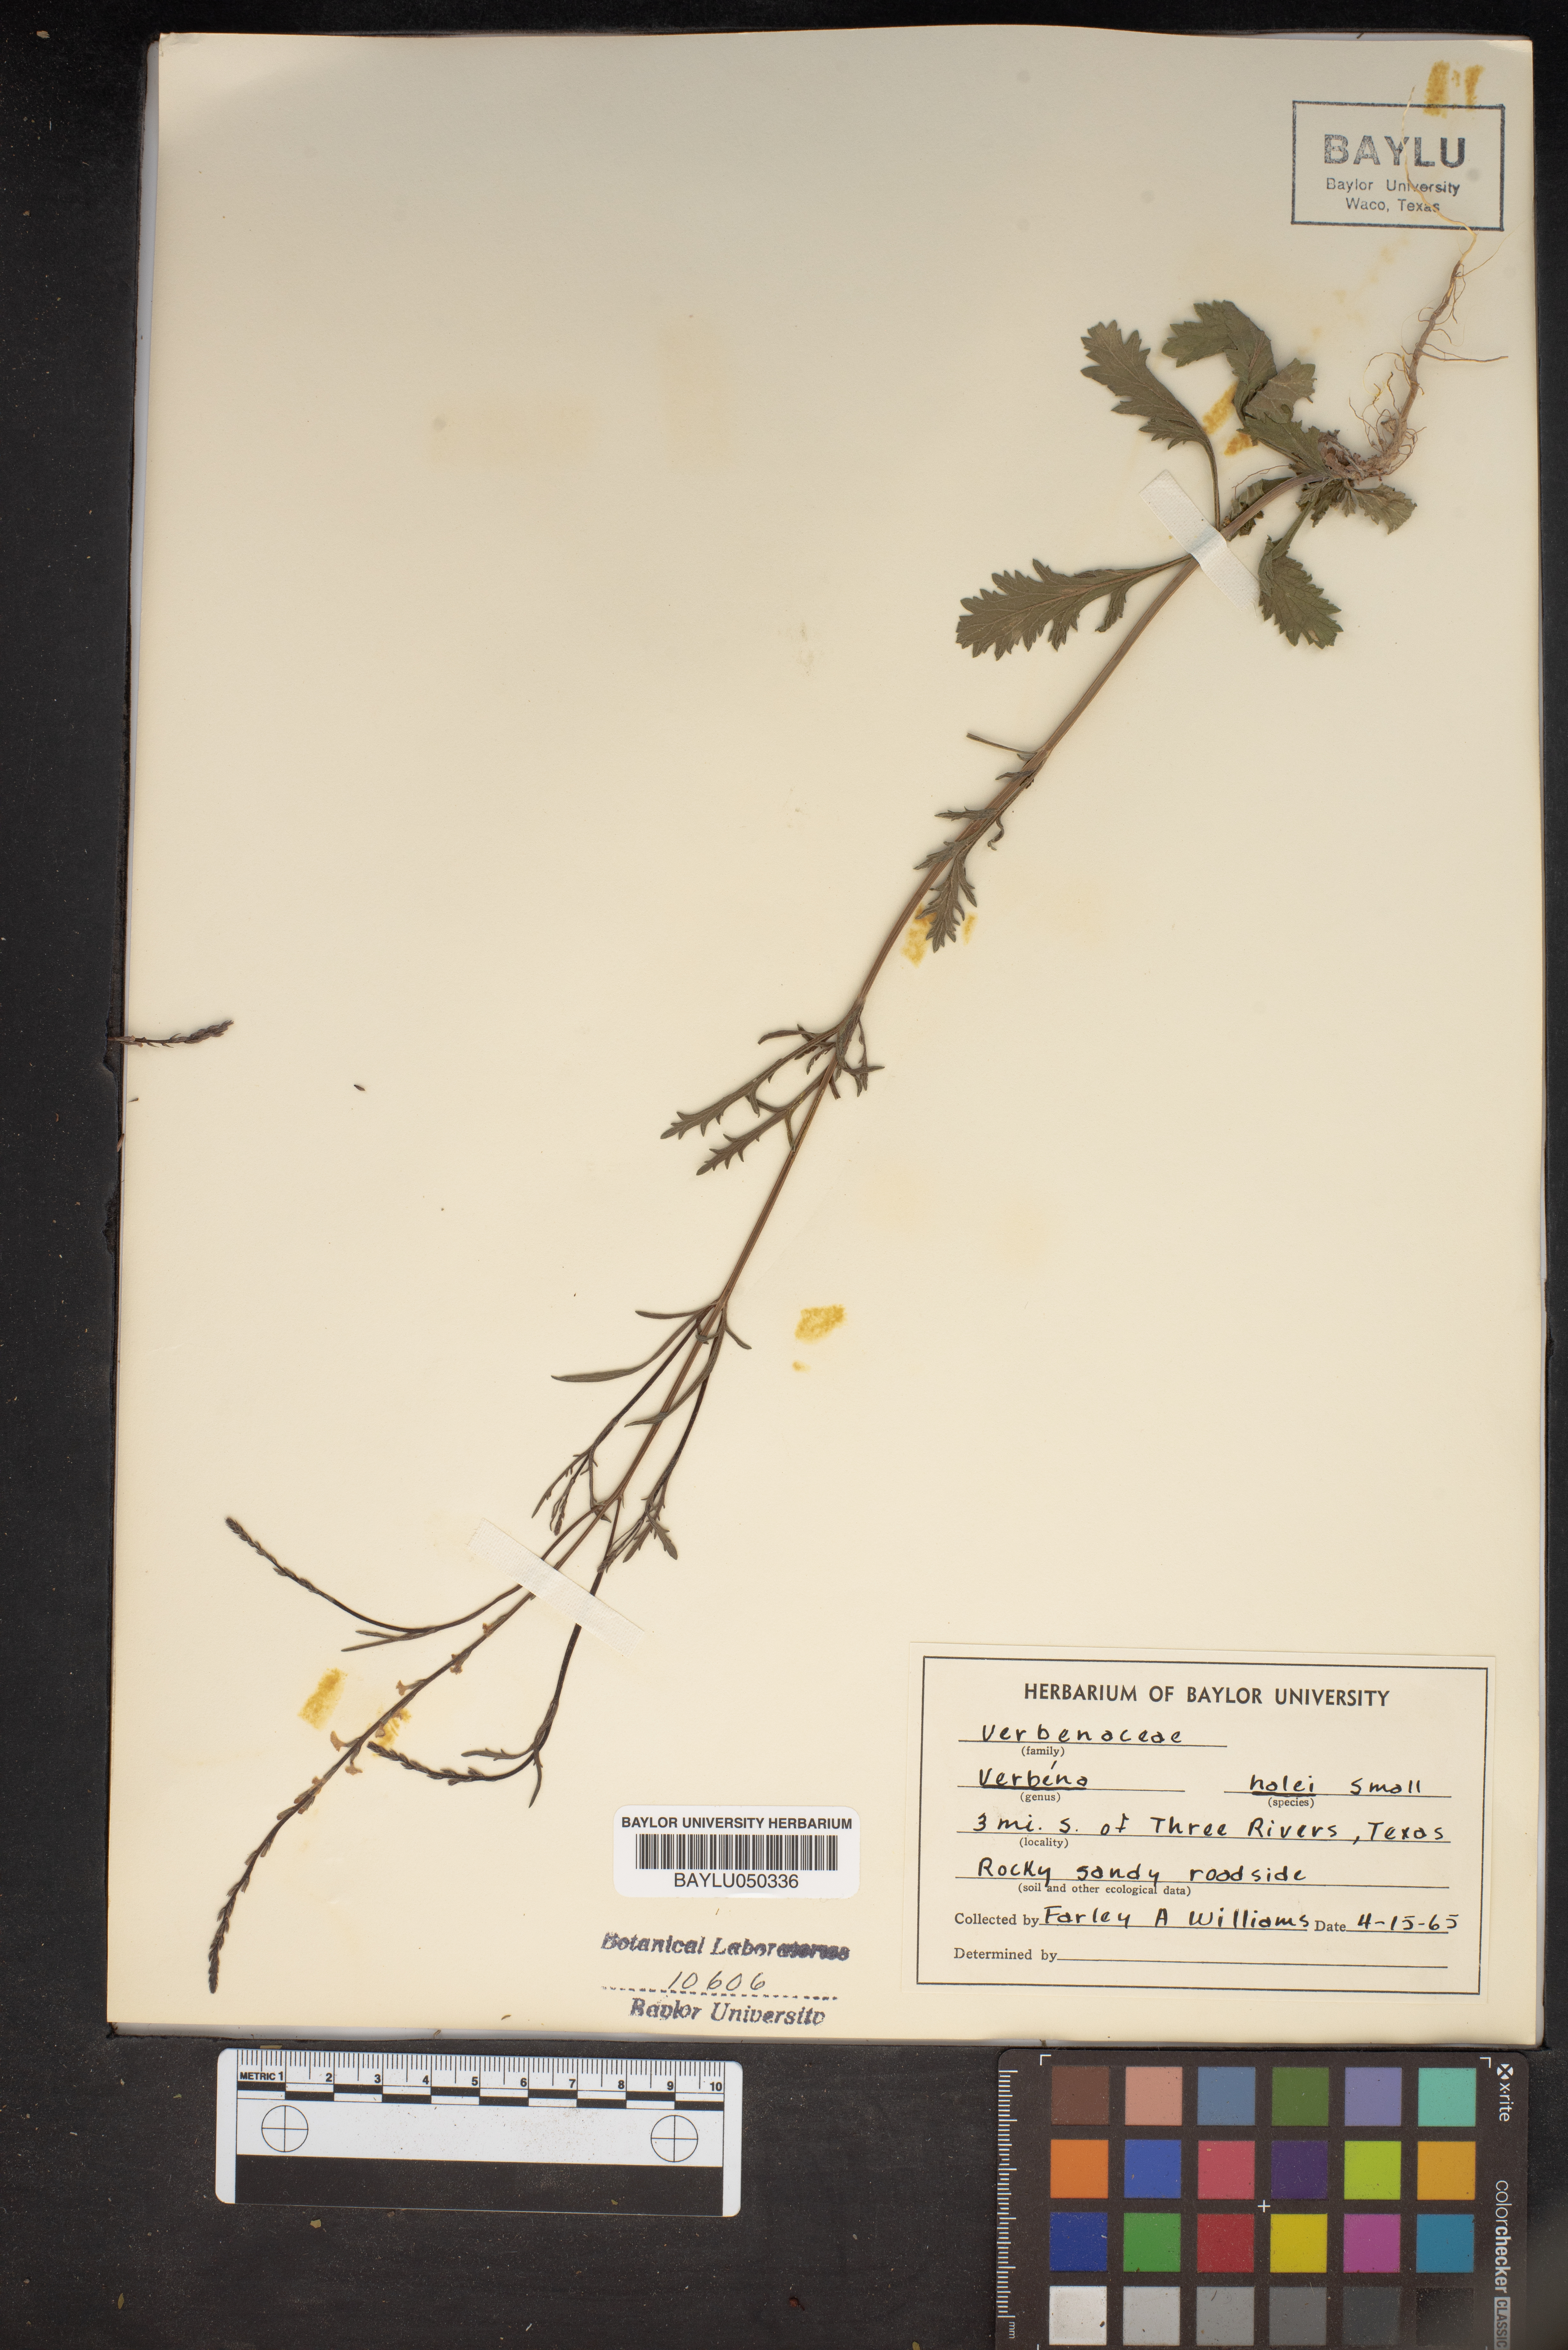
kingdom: Plantae
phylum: Tracheophyta
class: Magnoliopsida
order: Lamiales
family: Verbenaceae
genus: Verbena
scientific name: Verbena halei
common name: Texas vervain
